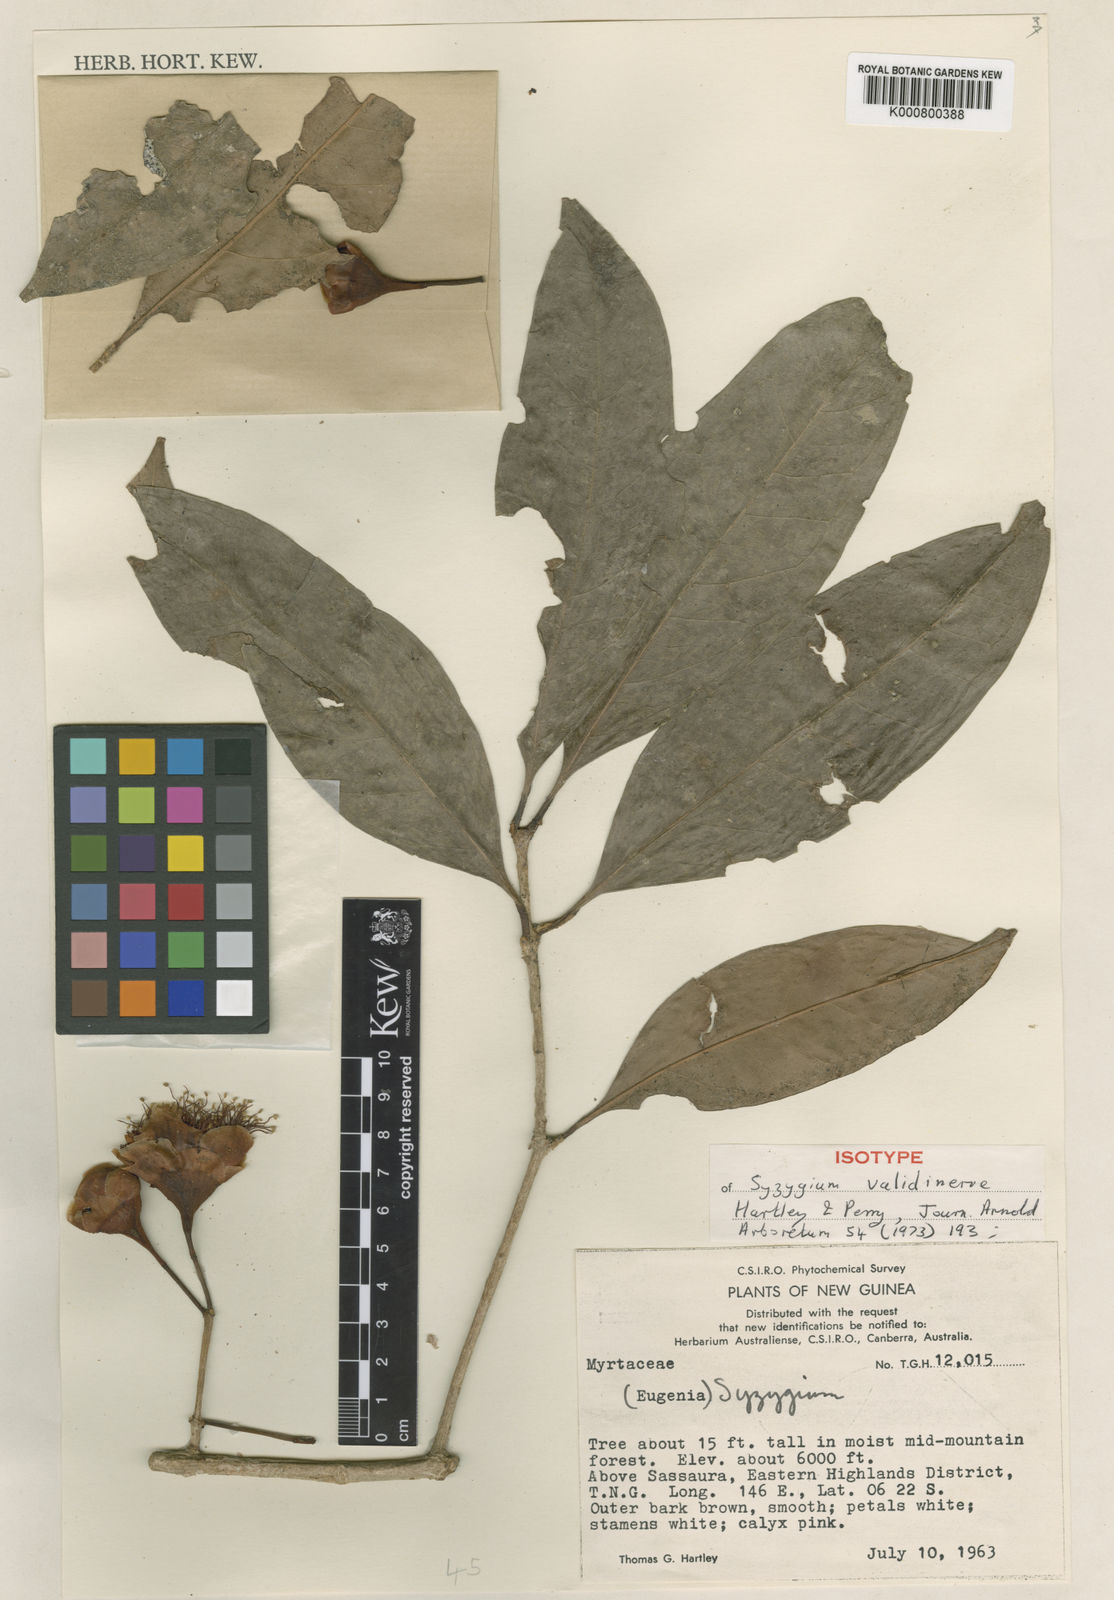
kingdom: Plantae
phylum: Tracheophyta
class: Magnoliopsida
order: Myrtales
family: Myrtaceae
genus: Syzygium
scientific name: Syzygium validinerve
